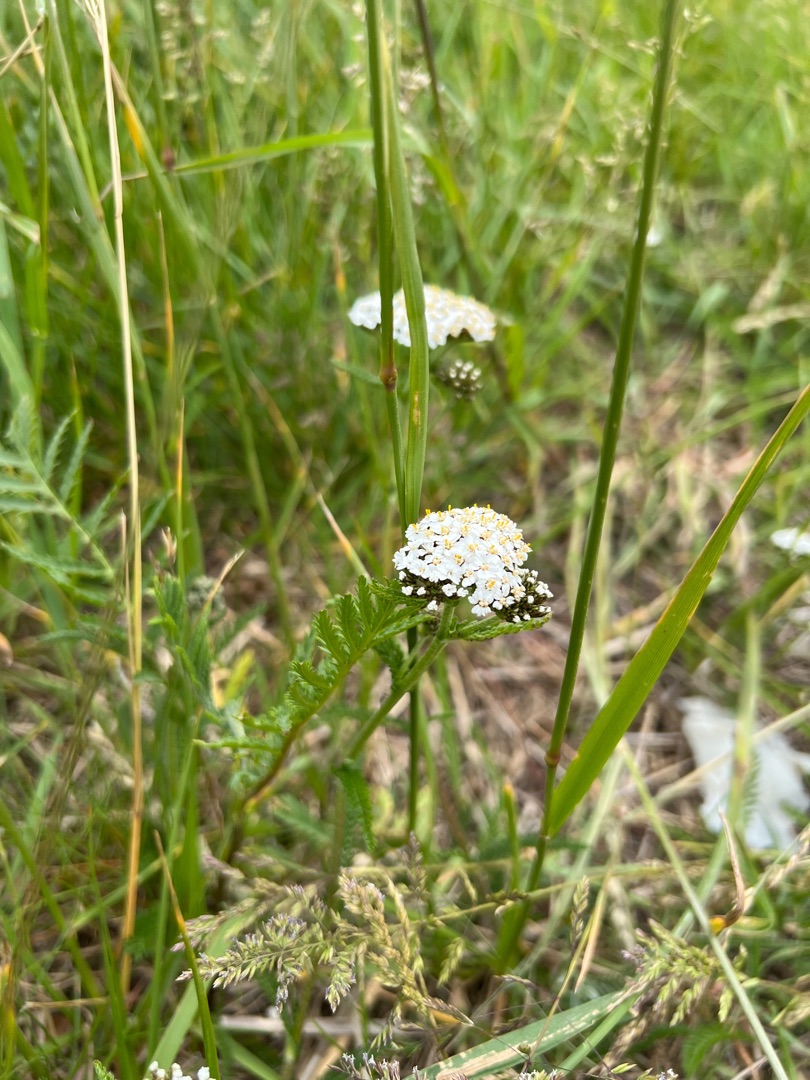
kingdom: Plantae
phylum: Tracheophyta
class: Magnoliopsida
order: Asterales
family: Asteraceae
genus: Achillea
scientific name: Achillea millefolium
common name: Almindelig røllike
